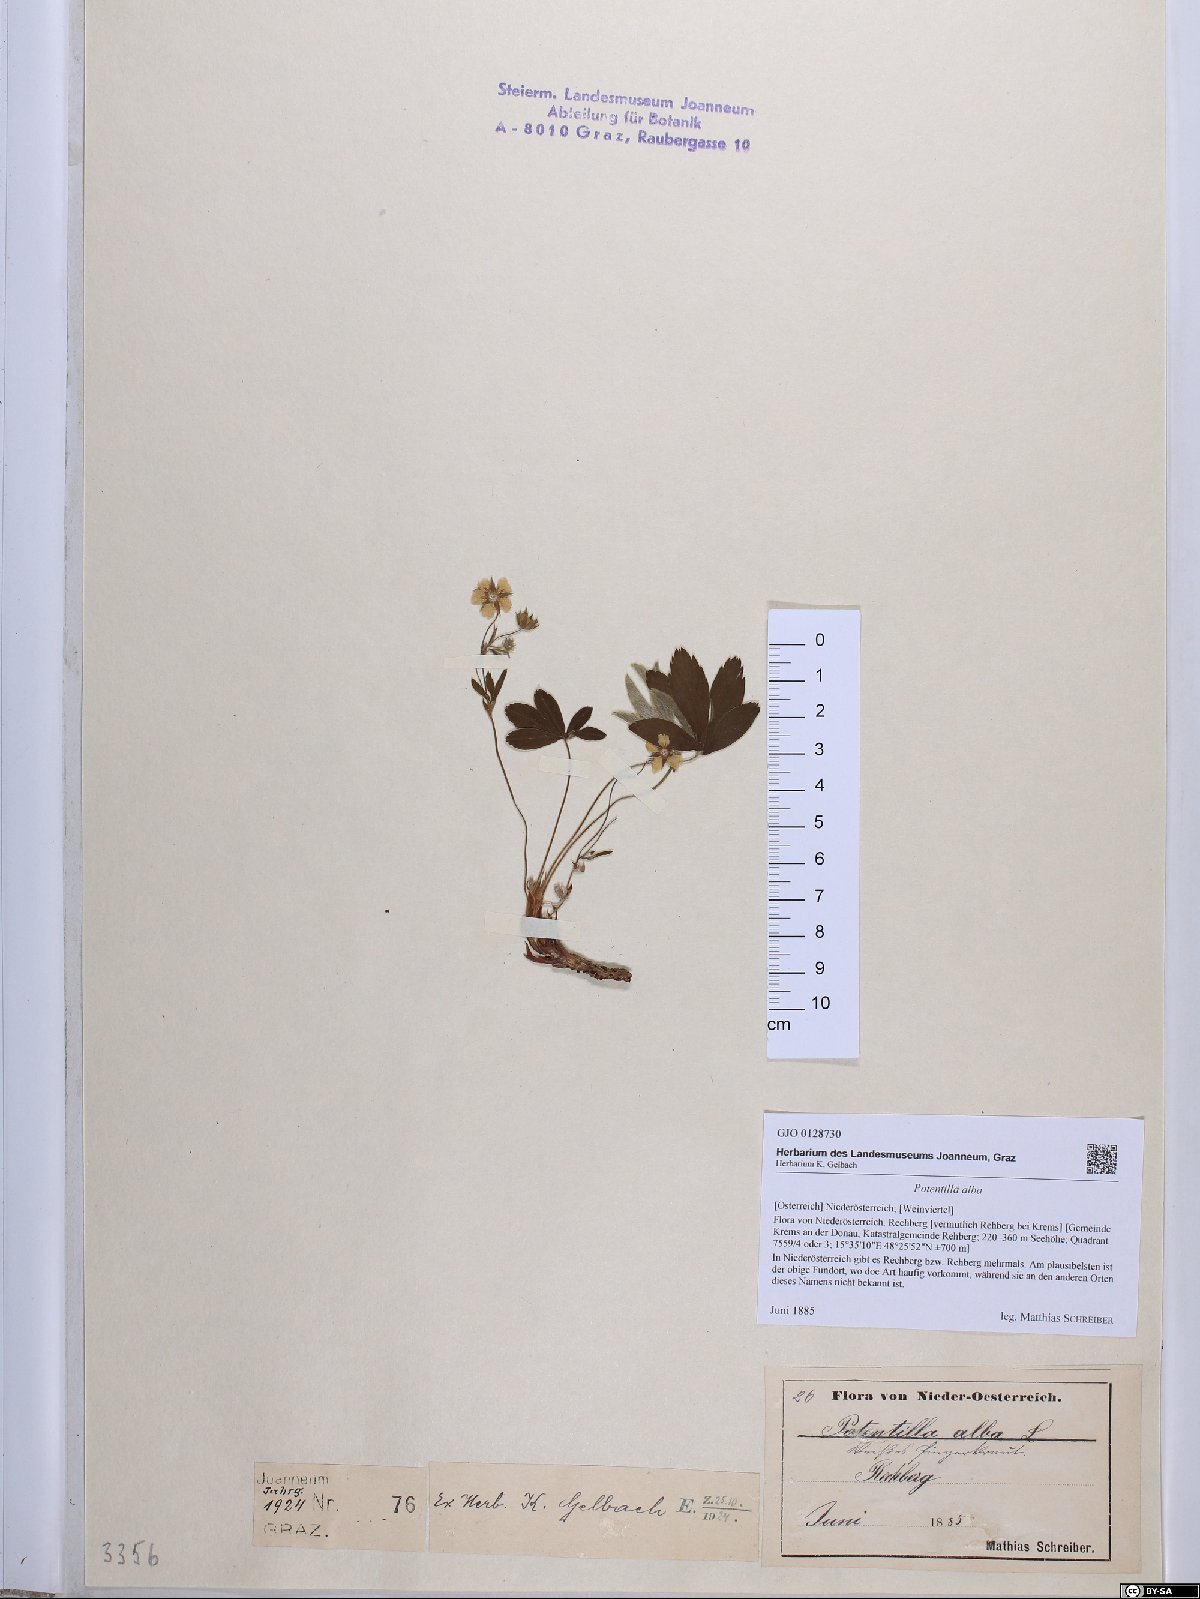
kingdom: Plantae
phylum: Tracheophyta
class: Magnoliopsida
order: Rosales
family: Rosaceae
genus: Potentilla
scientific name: Potentilla alba
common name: White cinquefoil
